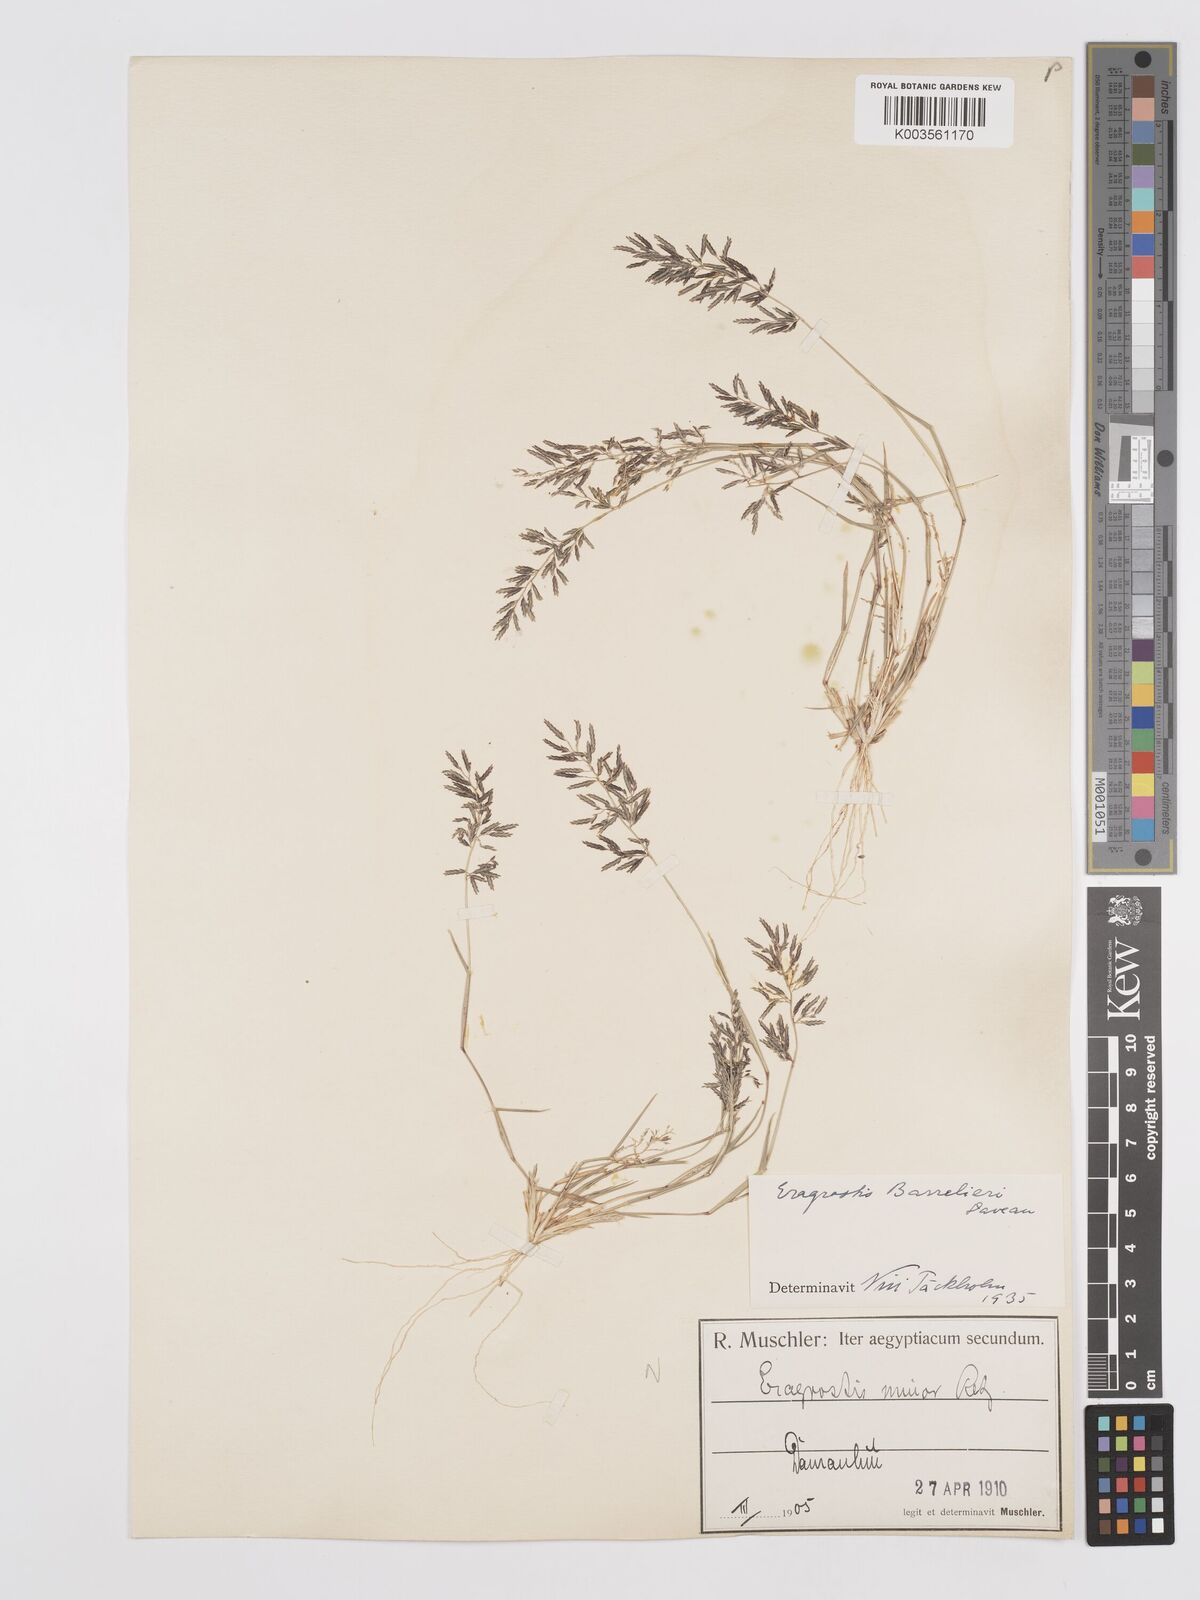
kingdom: Plantae
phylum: Tracheophyta
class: Liliopsida
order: Poales
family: Poaceae
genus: Eragrostis
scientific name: Eragrostis barrelieri
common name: Mediterranean lovegrass
